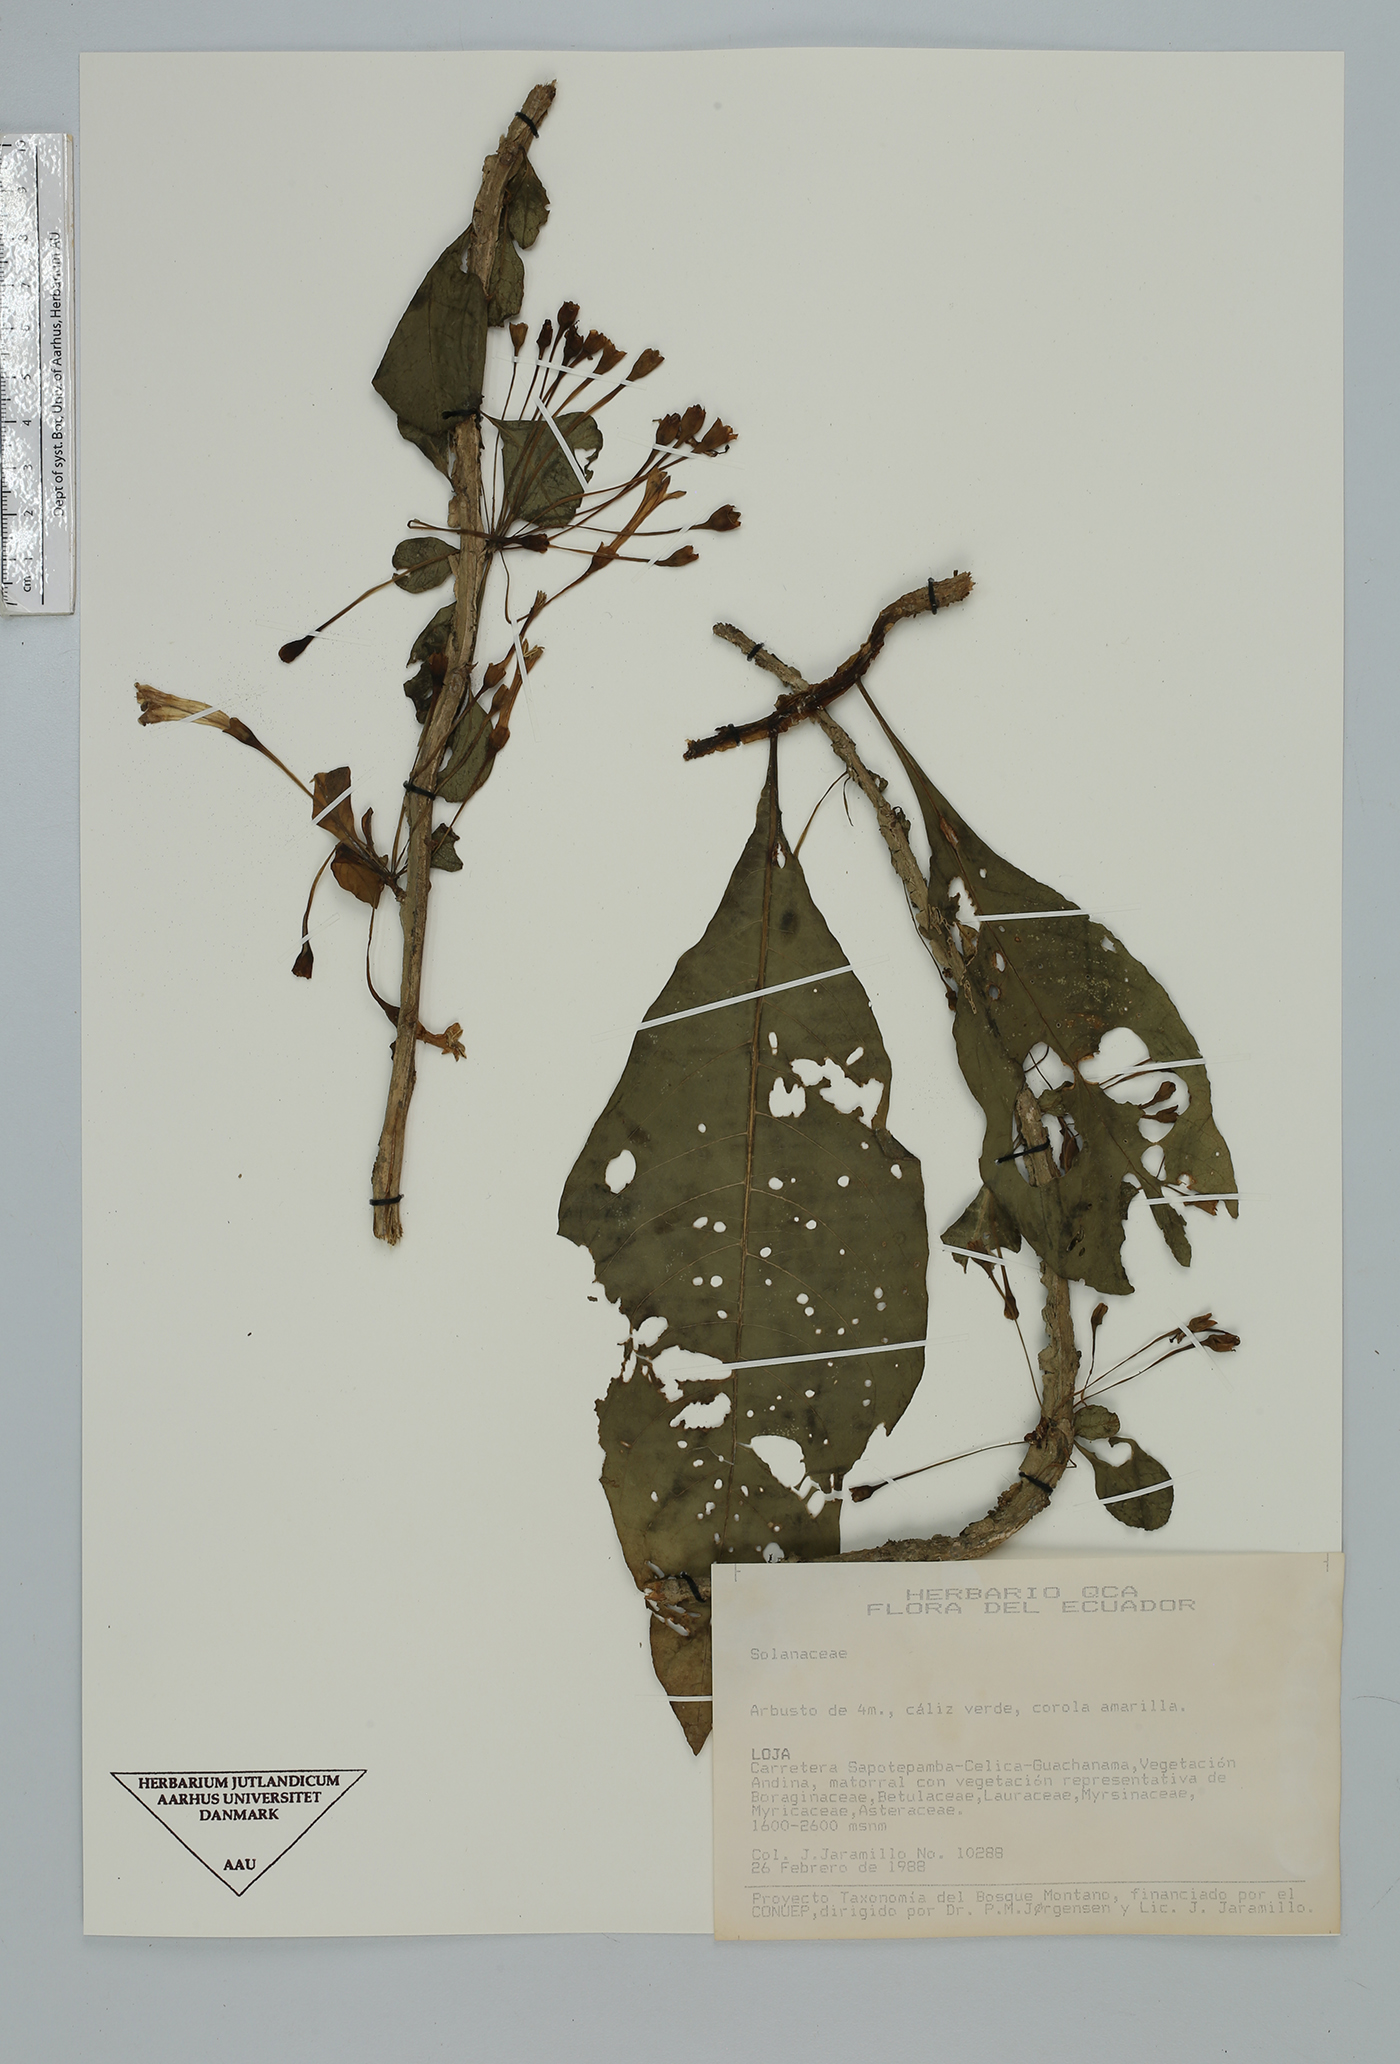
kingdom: Plantae
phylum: Tracheophyta
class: Magnoliopsida
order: Solanales
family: Solanaceae
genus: Iochroma
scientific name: Iochroma
